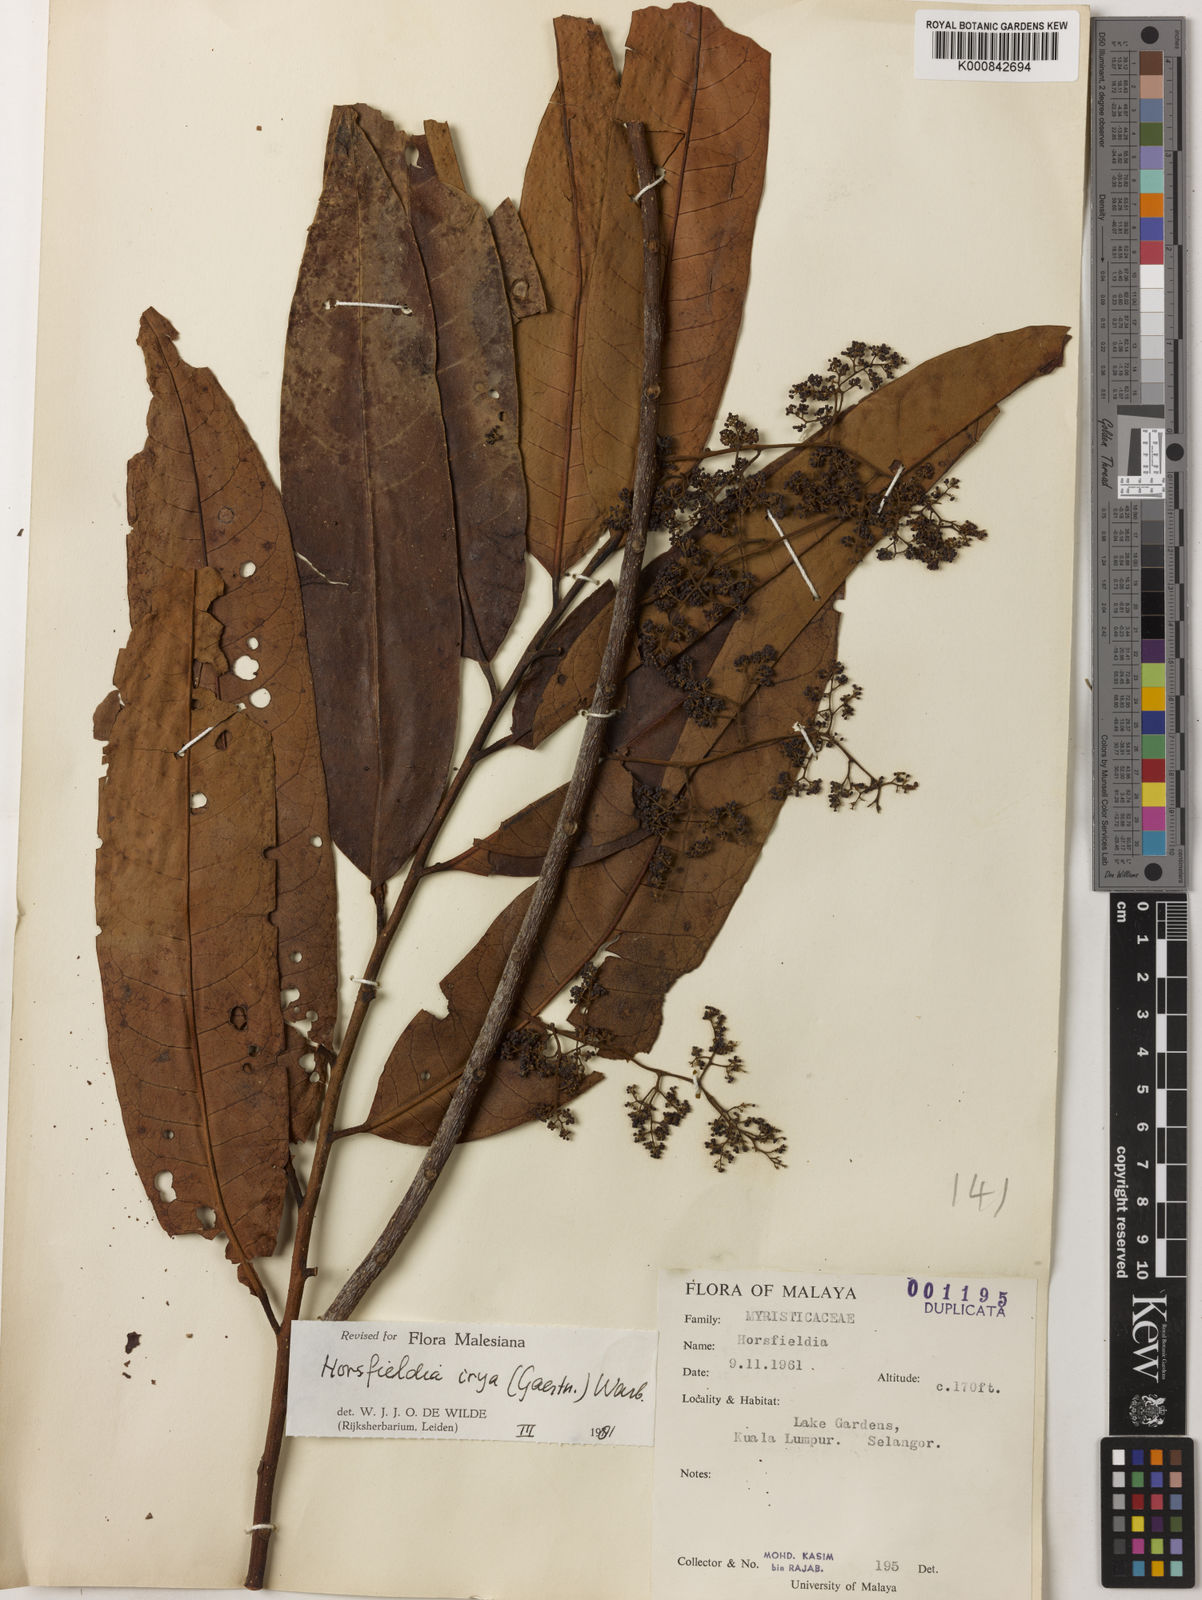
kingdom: Plantae
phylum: Tracheophyta
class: Magnoliopsida
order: Magnoliales
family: Myristicaceae
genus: Horsfieldia
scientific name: Horsfieldia irya
